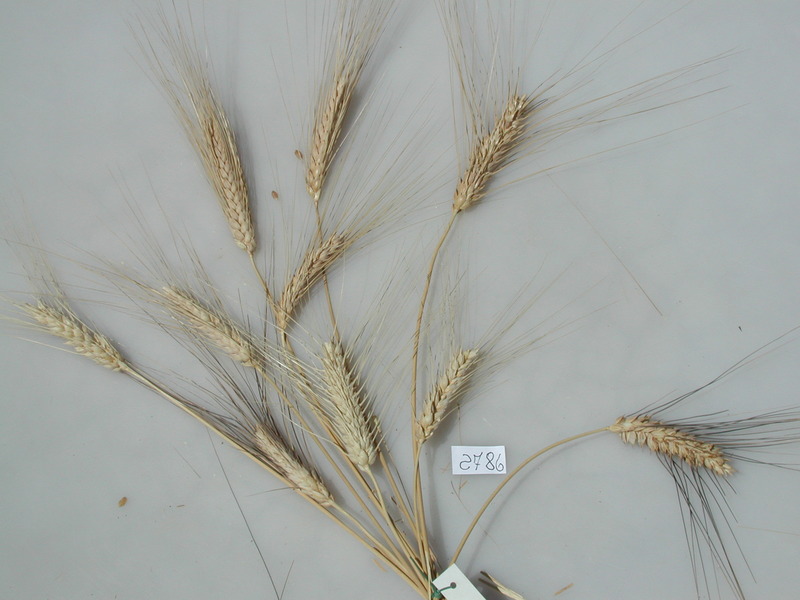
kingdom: Plantae
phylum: Tracheophyta
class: Liliopsida
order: Poales
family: Poaceae
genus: Triticum
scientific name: Triticum turgidum
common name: Wheat
